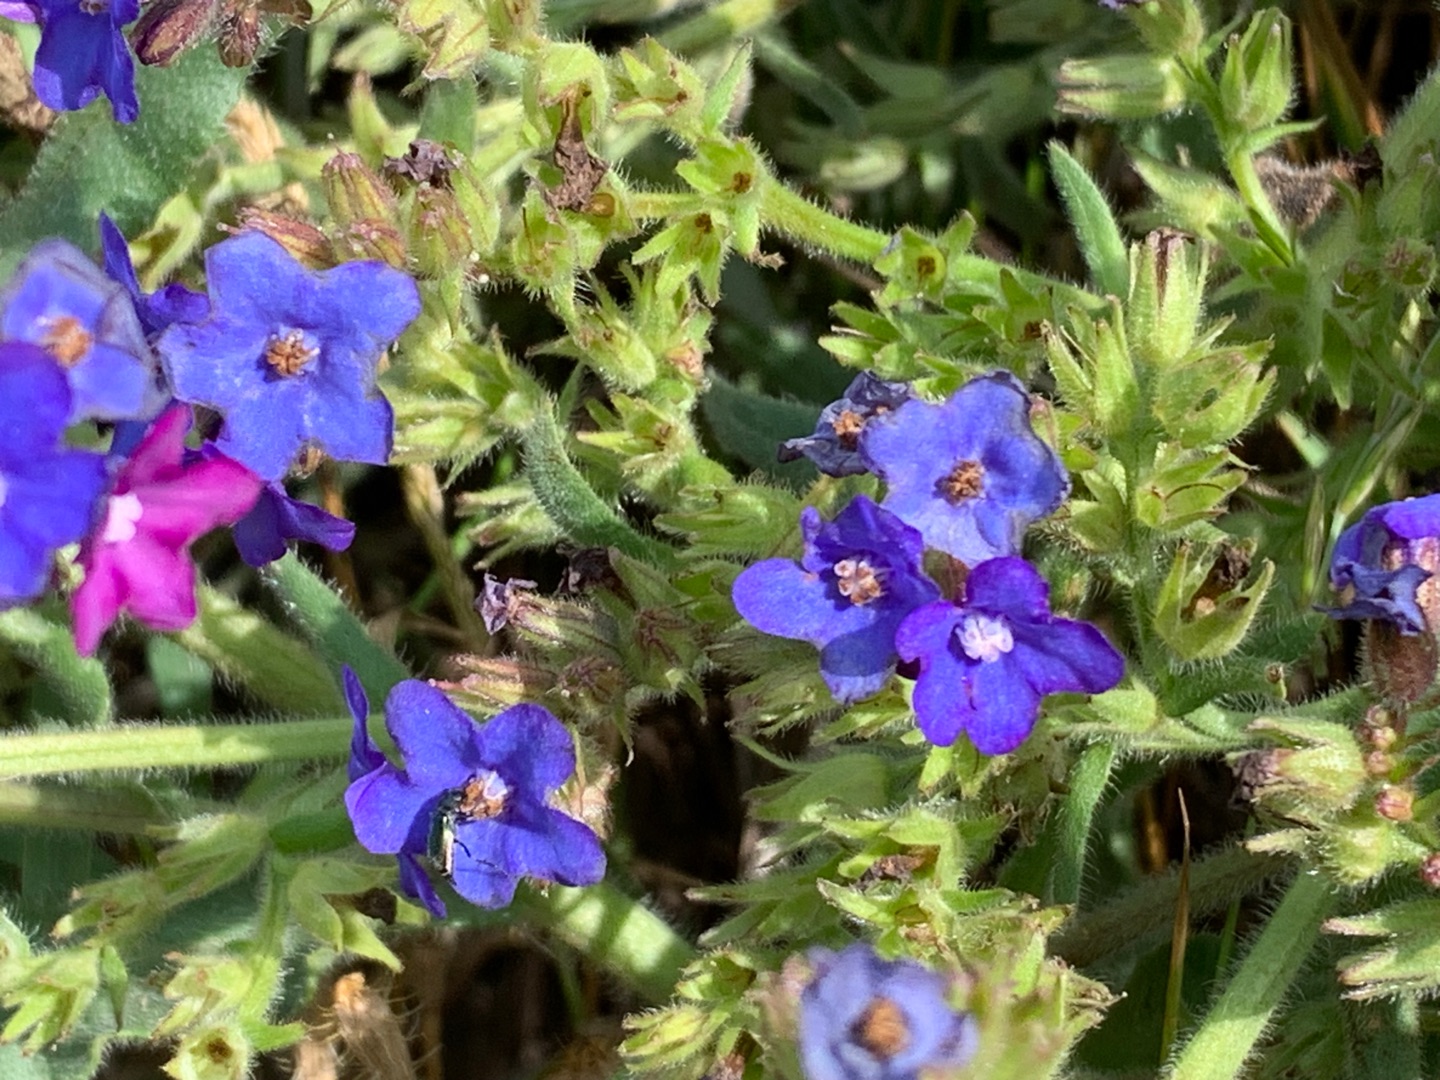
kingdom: Plantae
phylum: Tracheophyta
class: Magnoliopsida
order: Boraginales
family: Boraginaceae
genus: Anchusa
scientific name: Anchusa officinalis
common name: Læge-oksetunge
